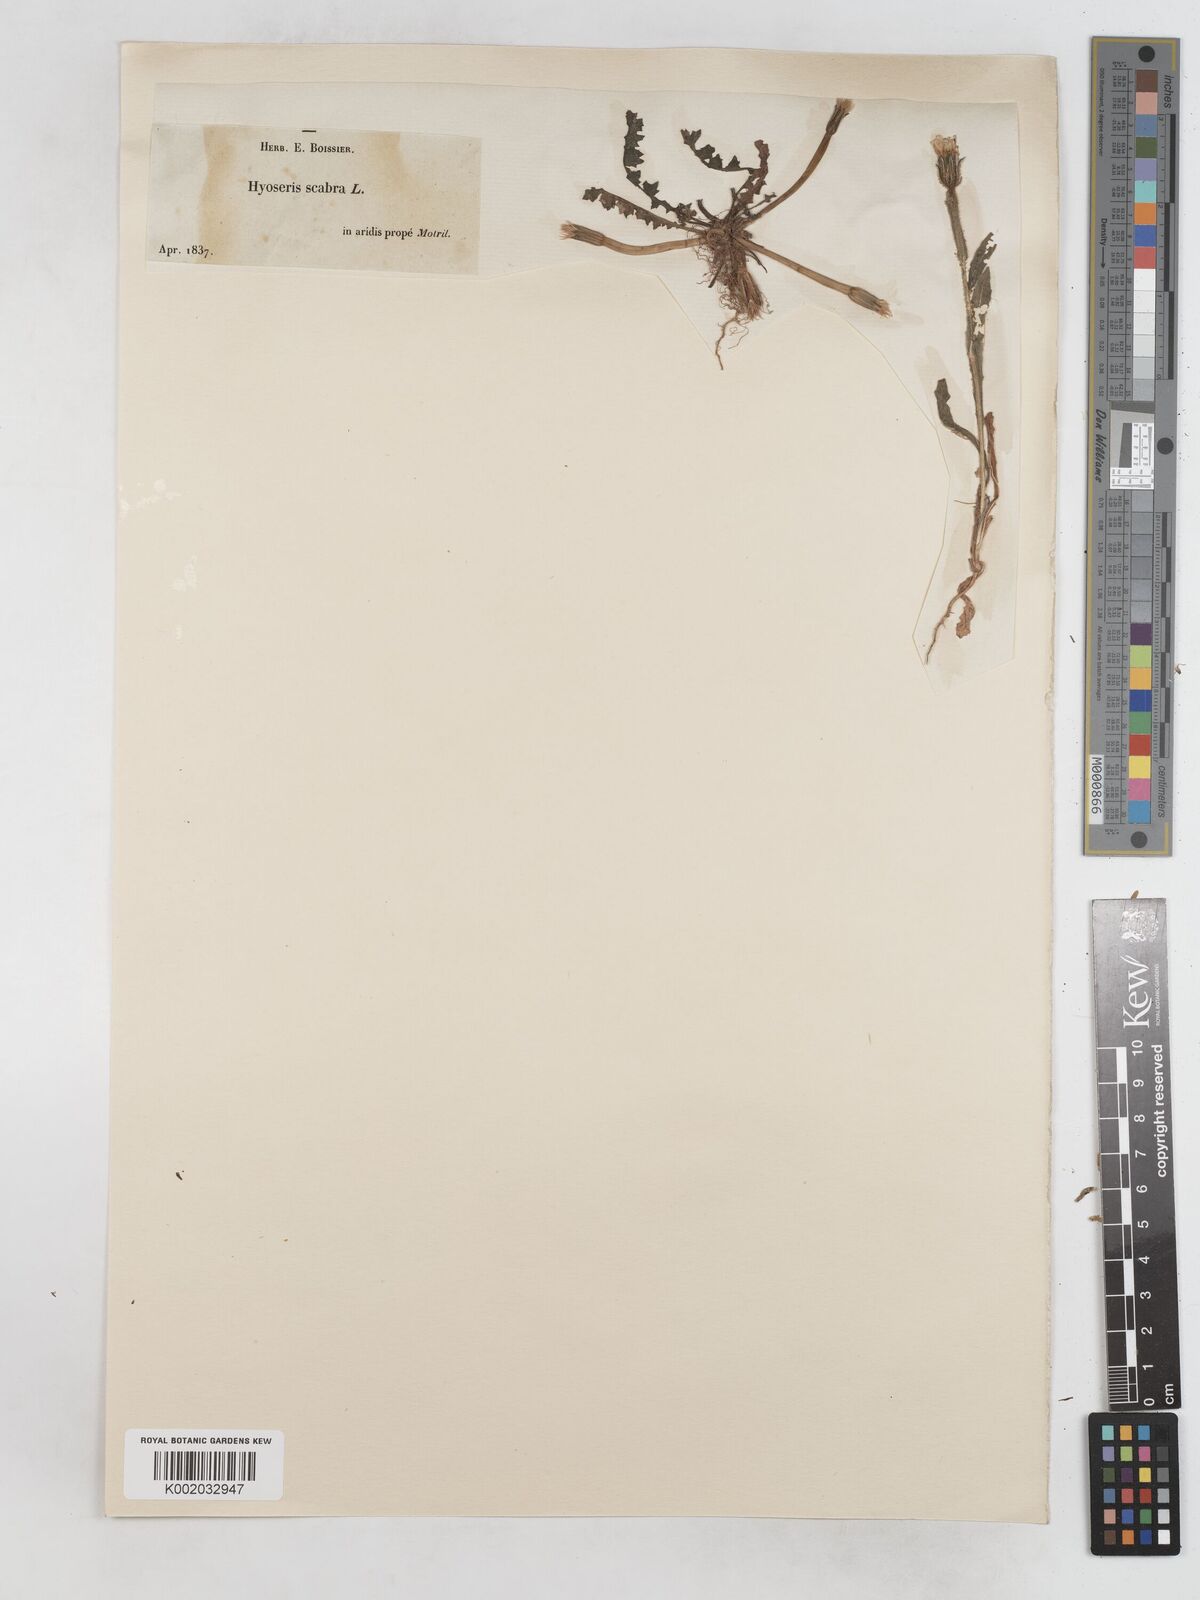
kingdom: Plantae
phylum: Tracheophyta
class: Magnoliopsida
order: Asterales
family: Asteraceae
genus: Hyoseris
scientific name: Hyoseris scabra
